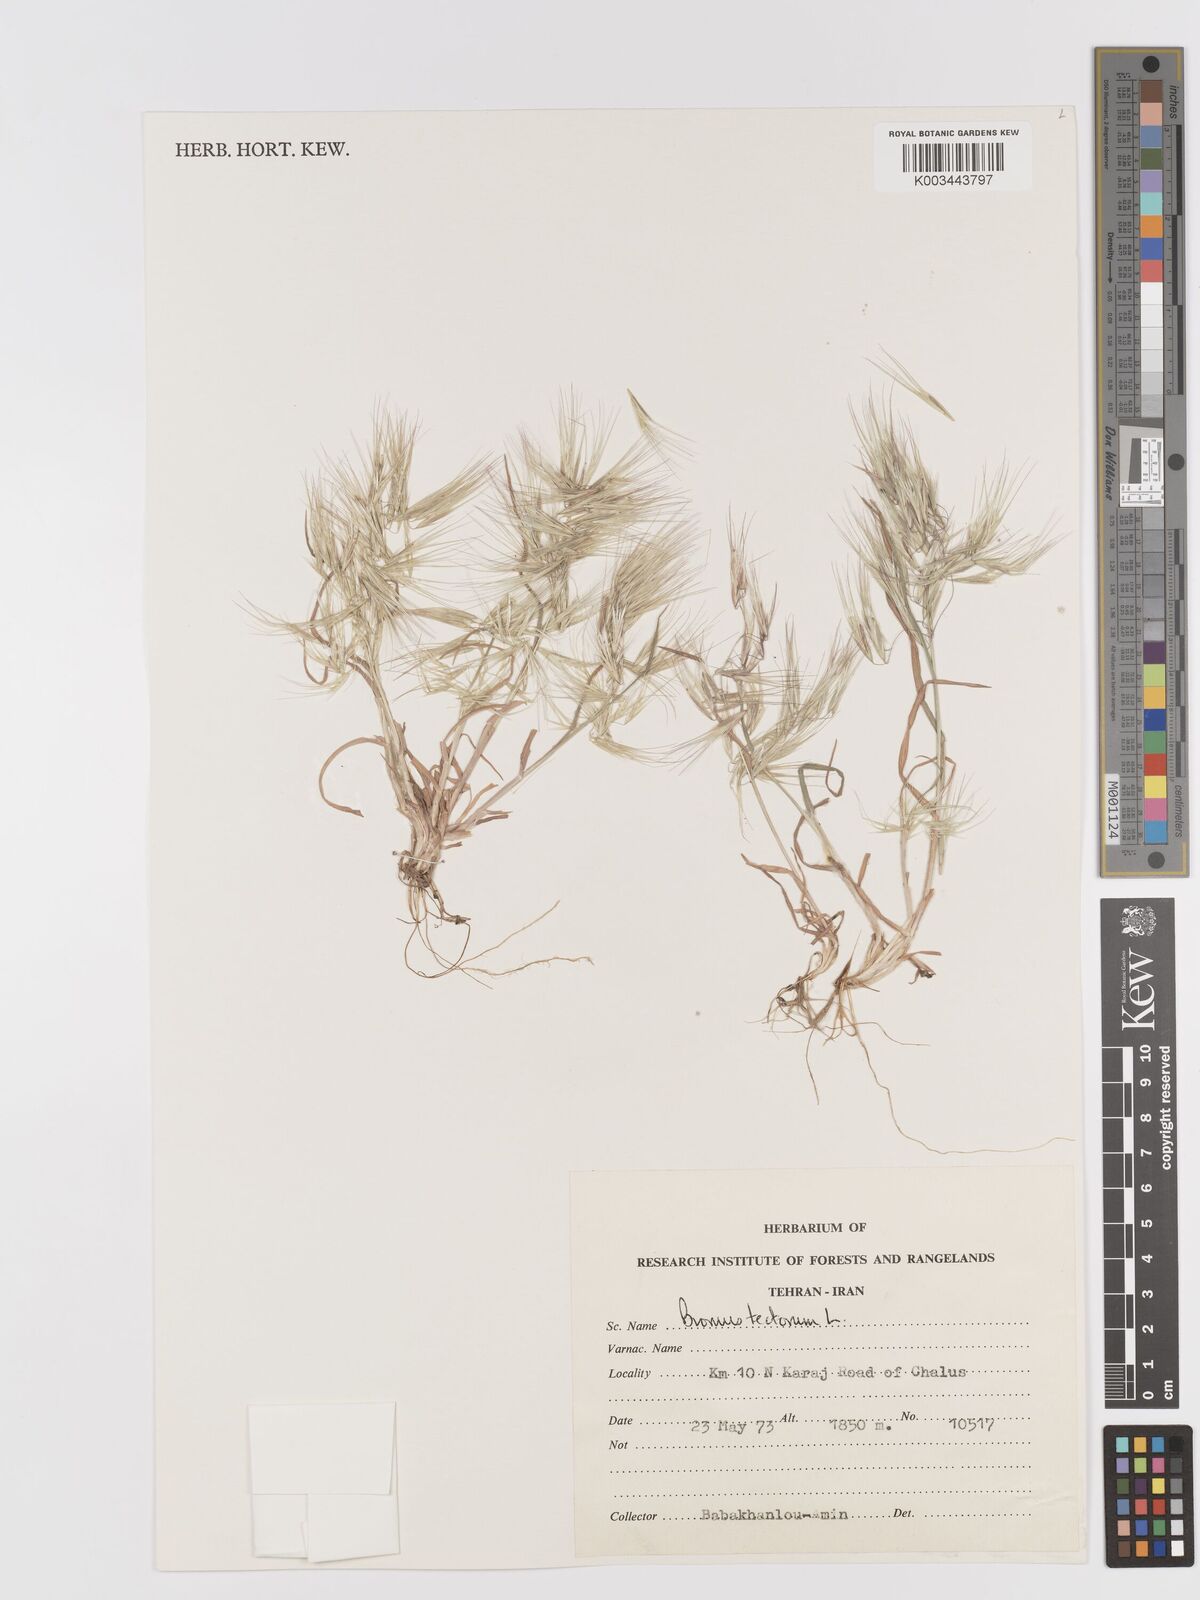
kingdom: Plantae
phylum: Tracheophyta
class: Liliopsida
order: Poales
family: Poaceae
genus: Bromus
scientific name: Bromus tectorum
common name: Cheatgrass
